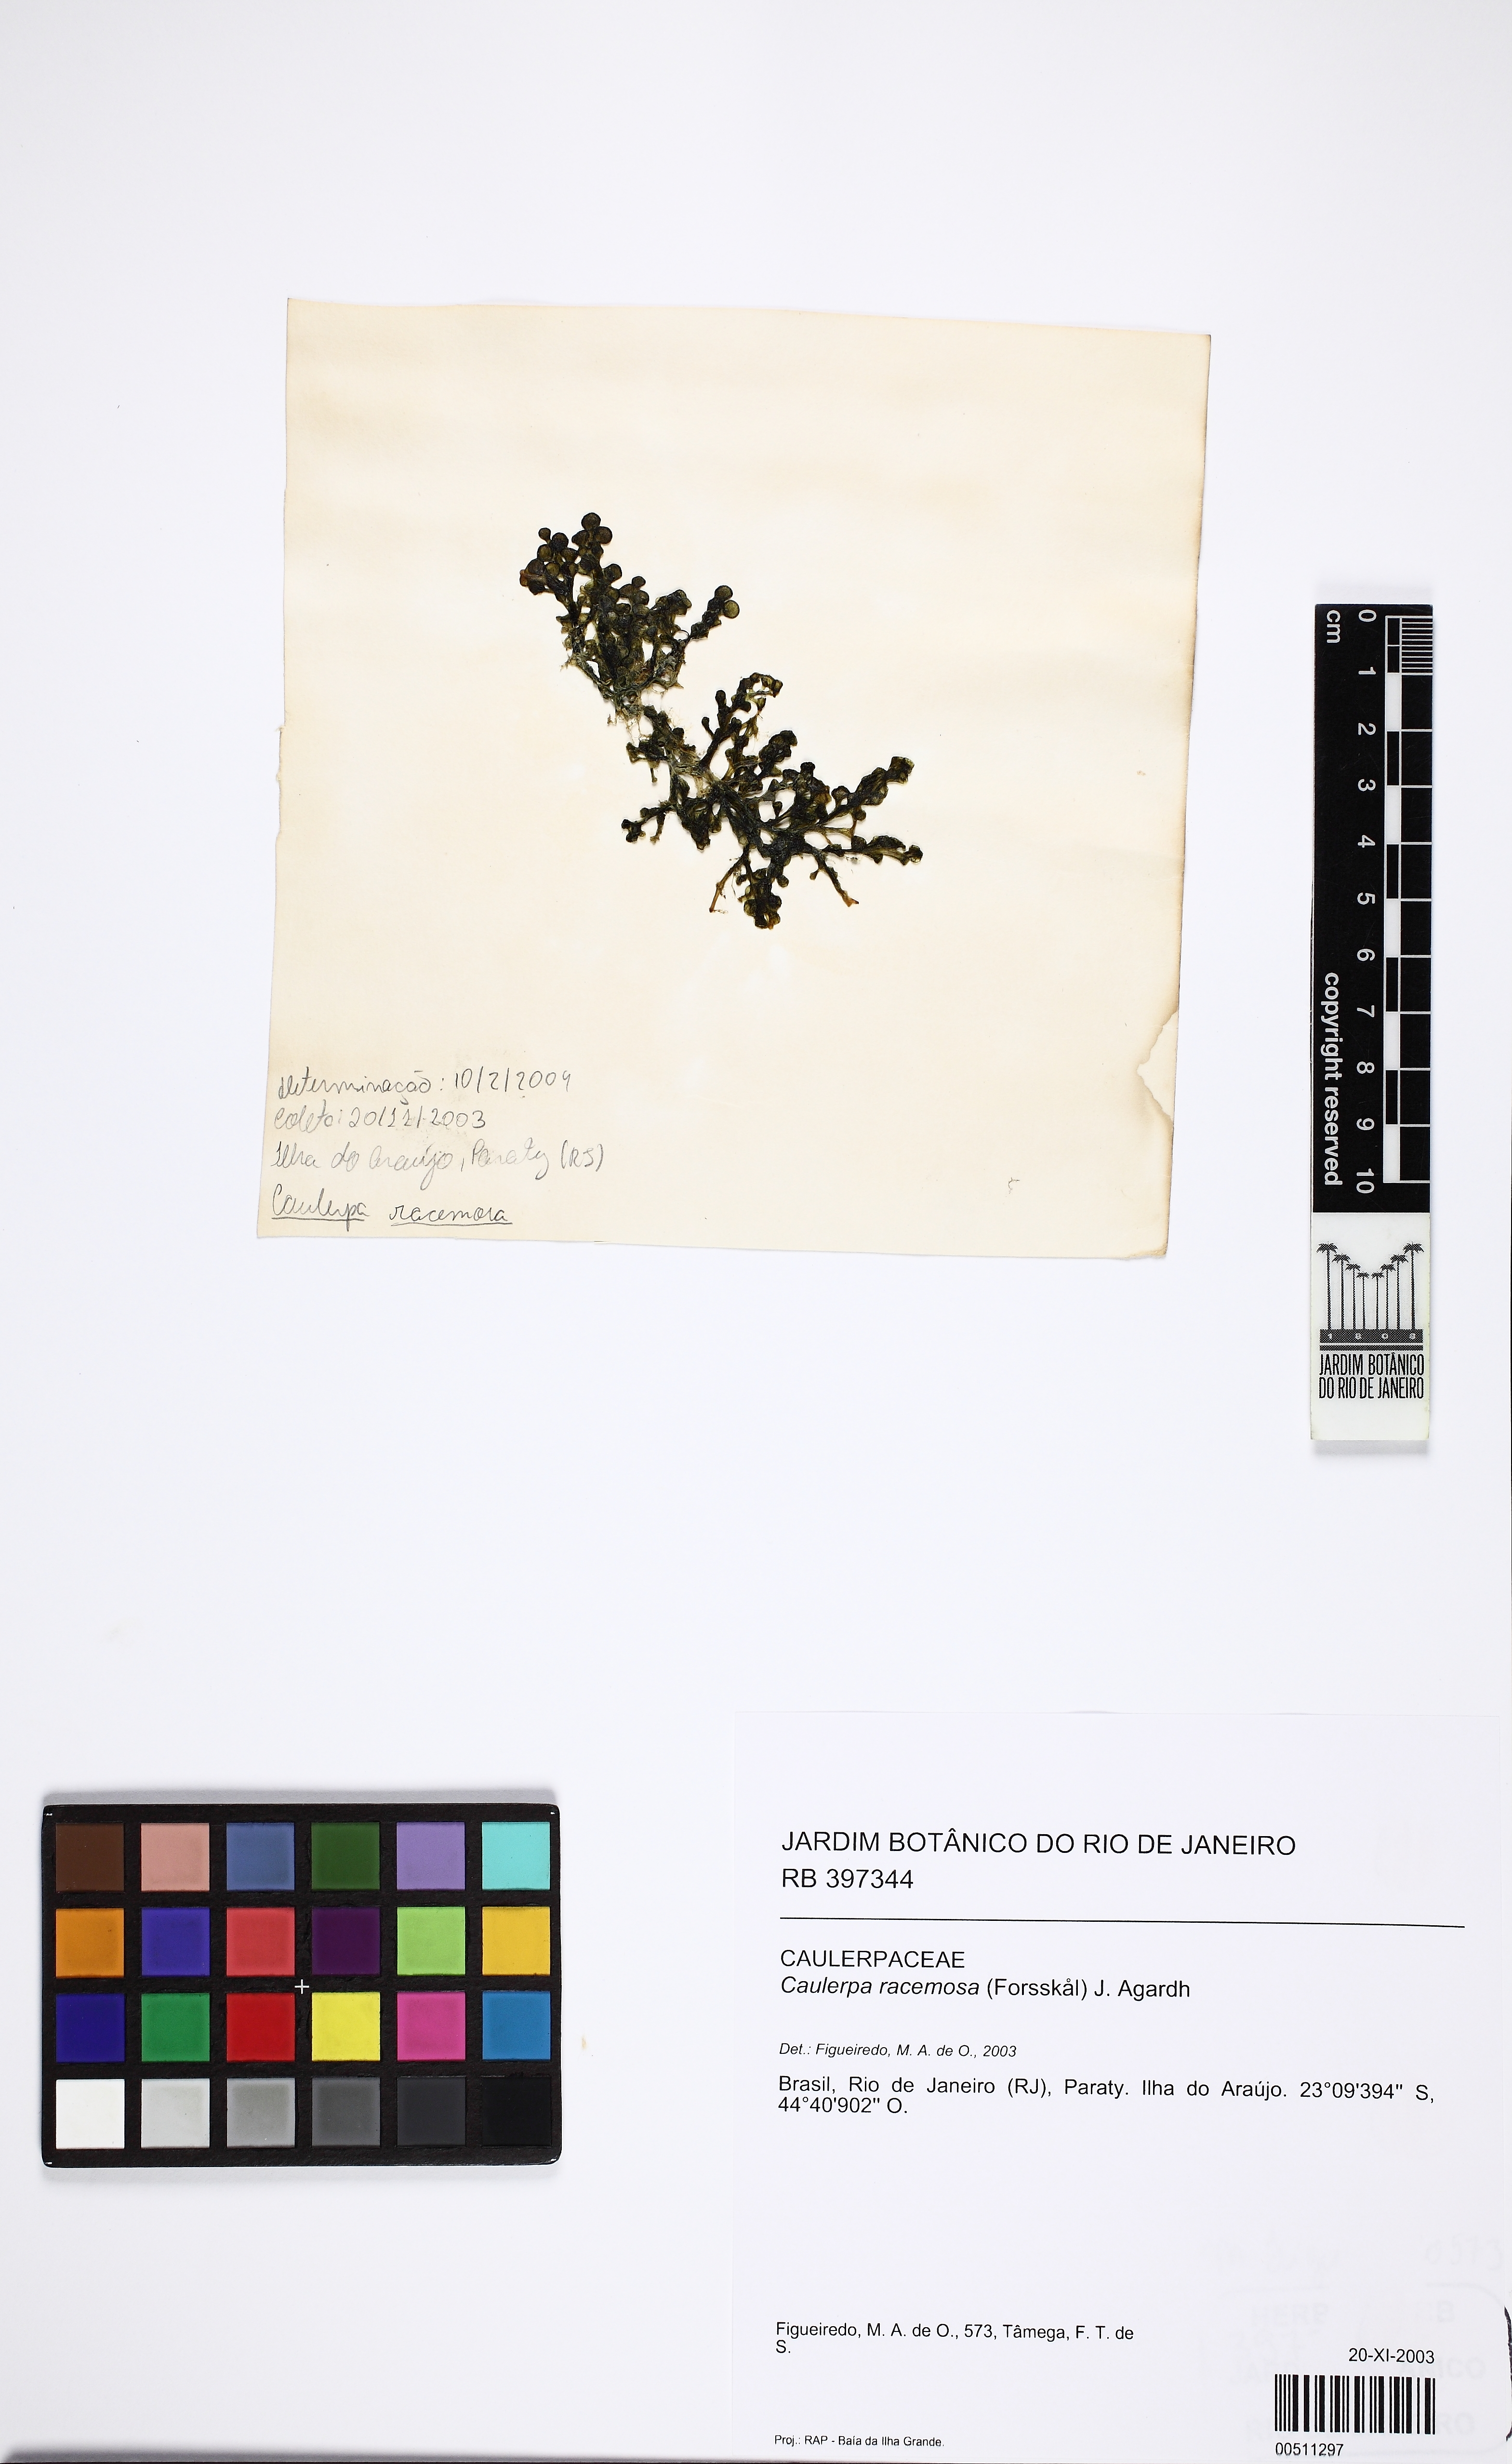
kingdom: Plantae
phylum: Chlorophyta
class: Ulvophyceae
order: Bryopsidales
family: Caulerpaceae
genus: Caulerpa
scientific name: Caulerpa racemosa
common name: Green grape algae
